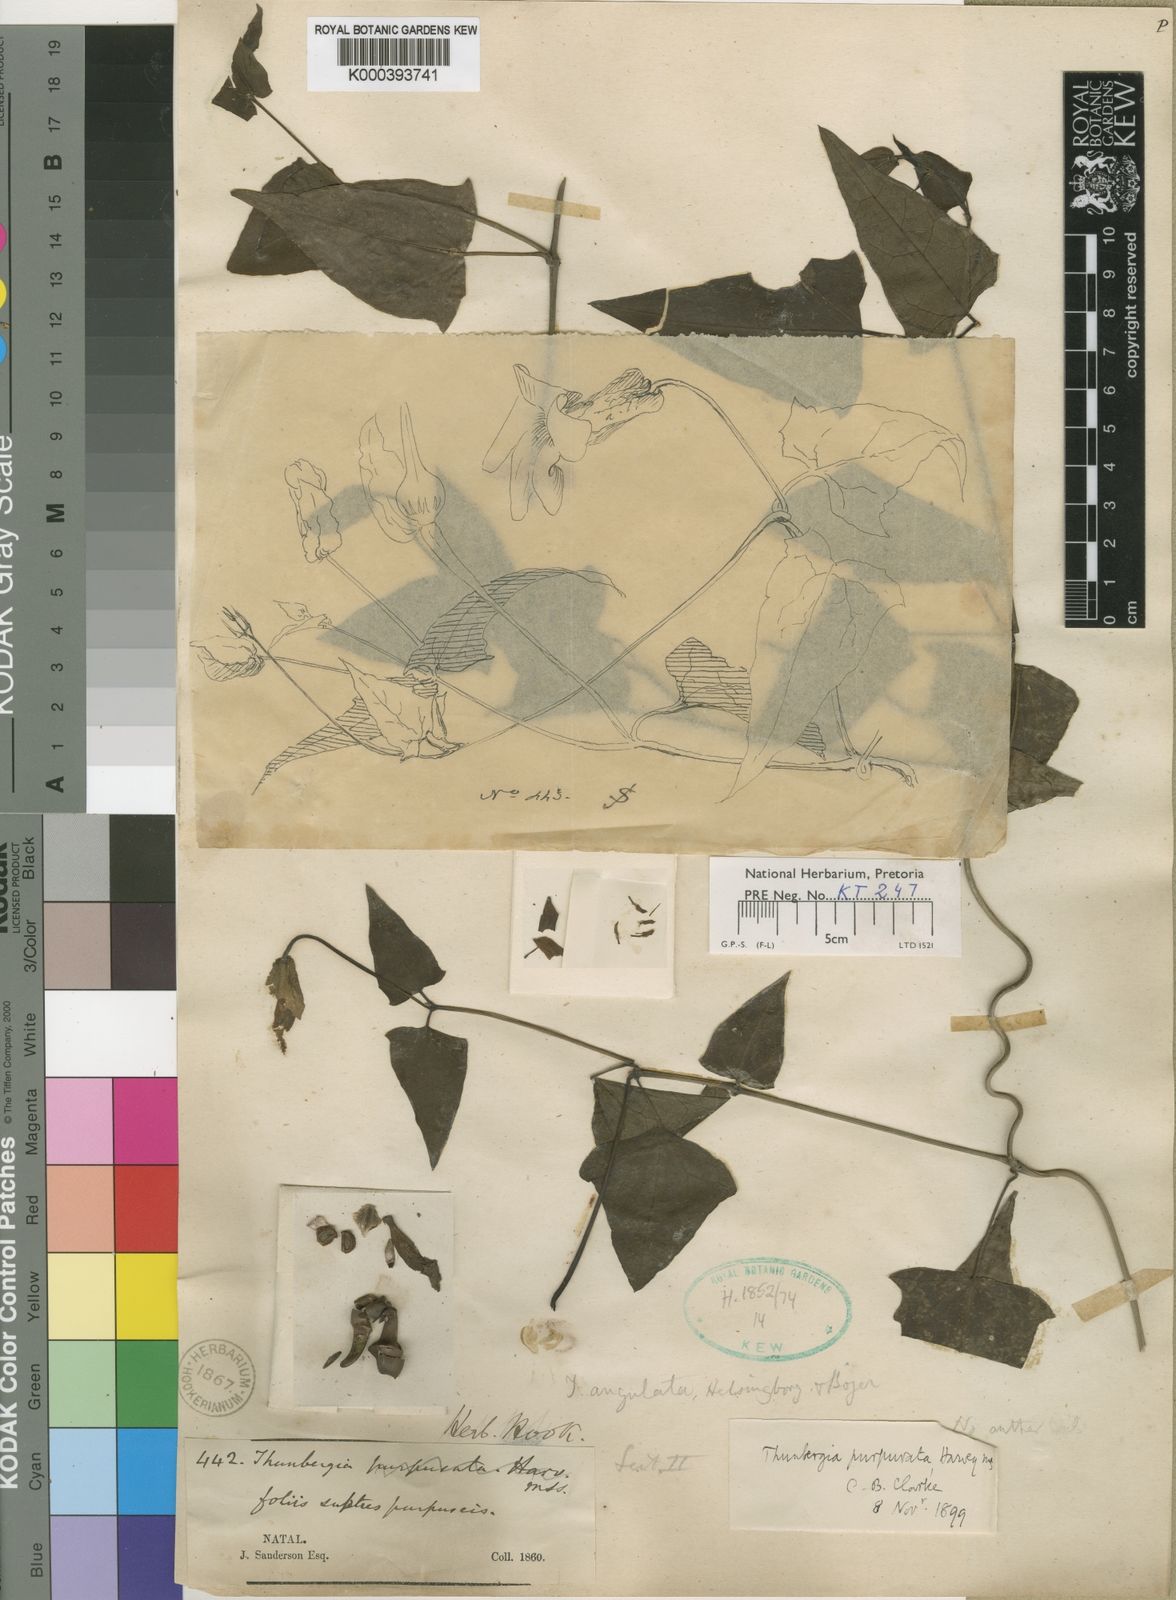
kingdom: Plantae
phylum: Tracheophyta
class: Magnoliopsida
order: Lamiales
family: Acanthaceae
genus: Thunbergia
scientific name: Thunbergia purpurata
